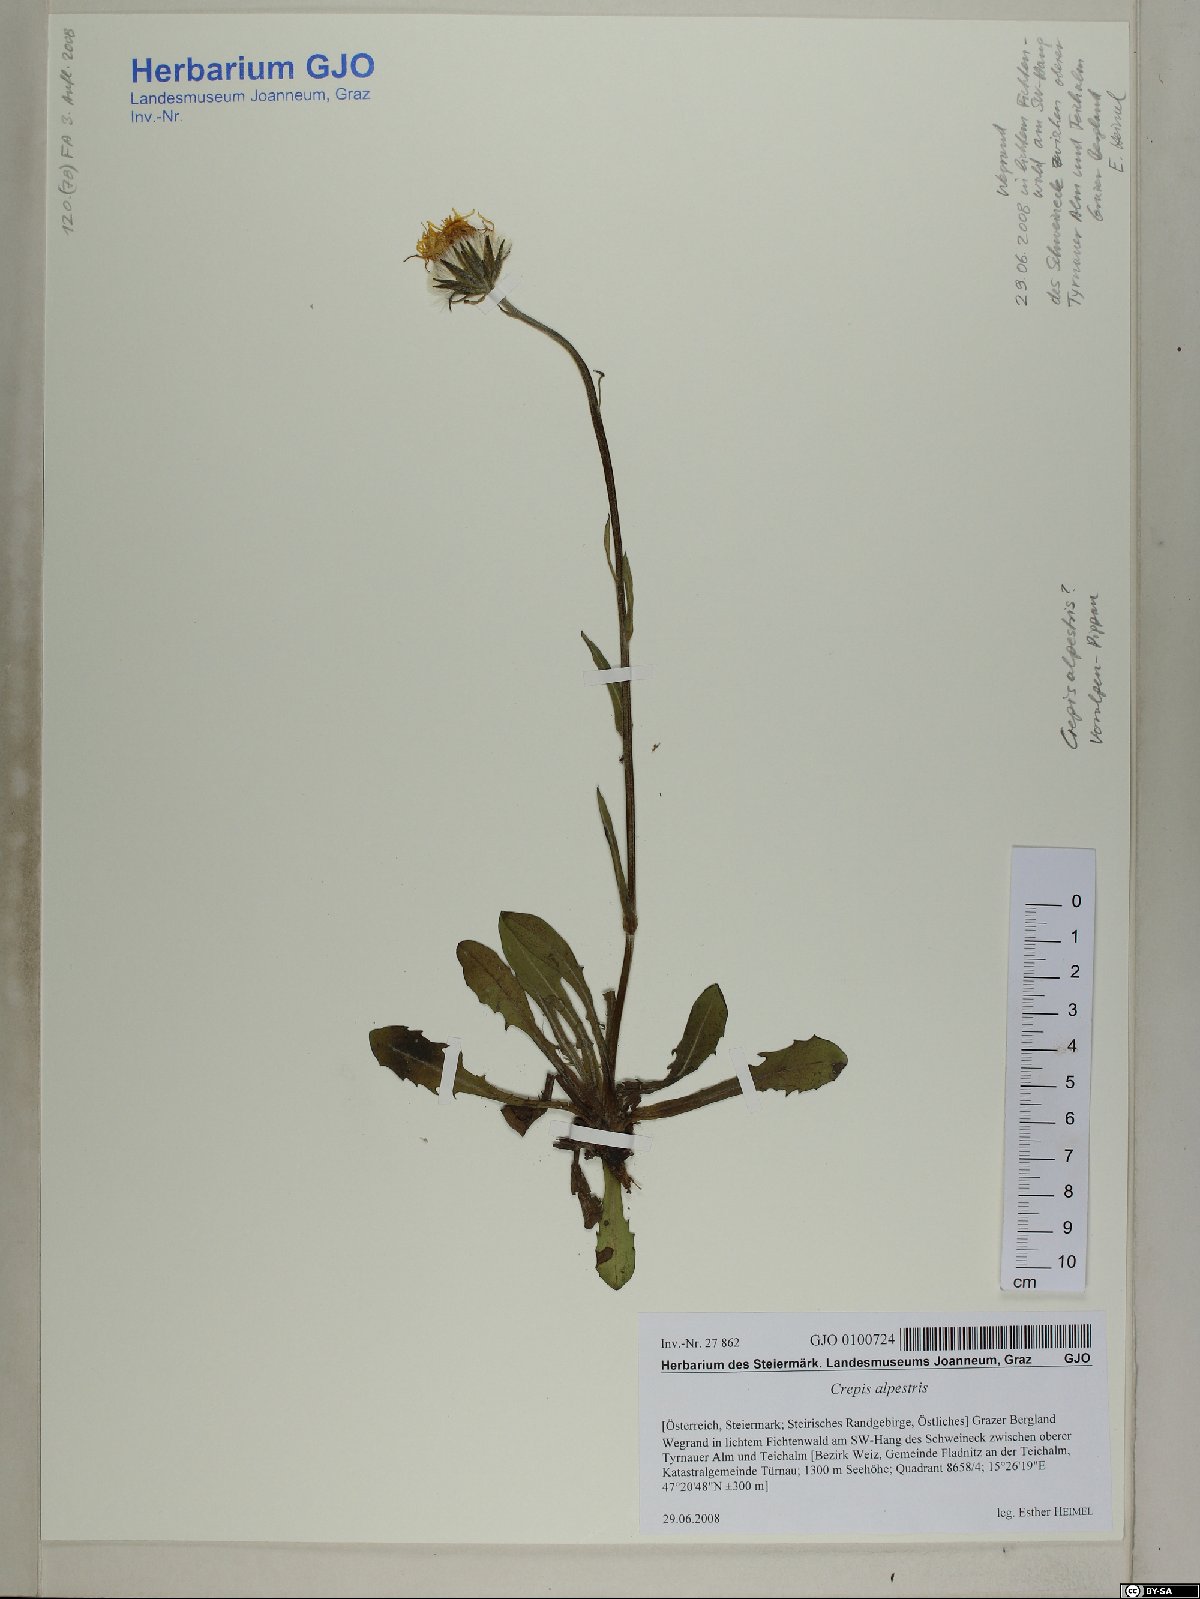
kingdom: Plantae
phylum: Tracheophyta
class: Magnoliopsida
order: Asterales
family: Asteraceae
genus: Crepis
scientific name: Crepis alpestris
